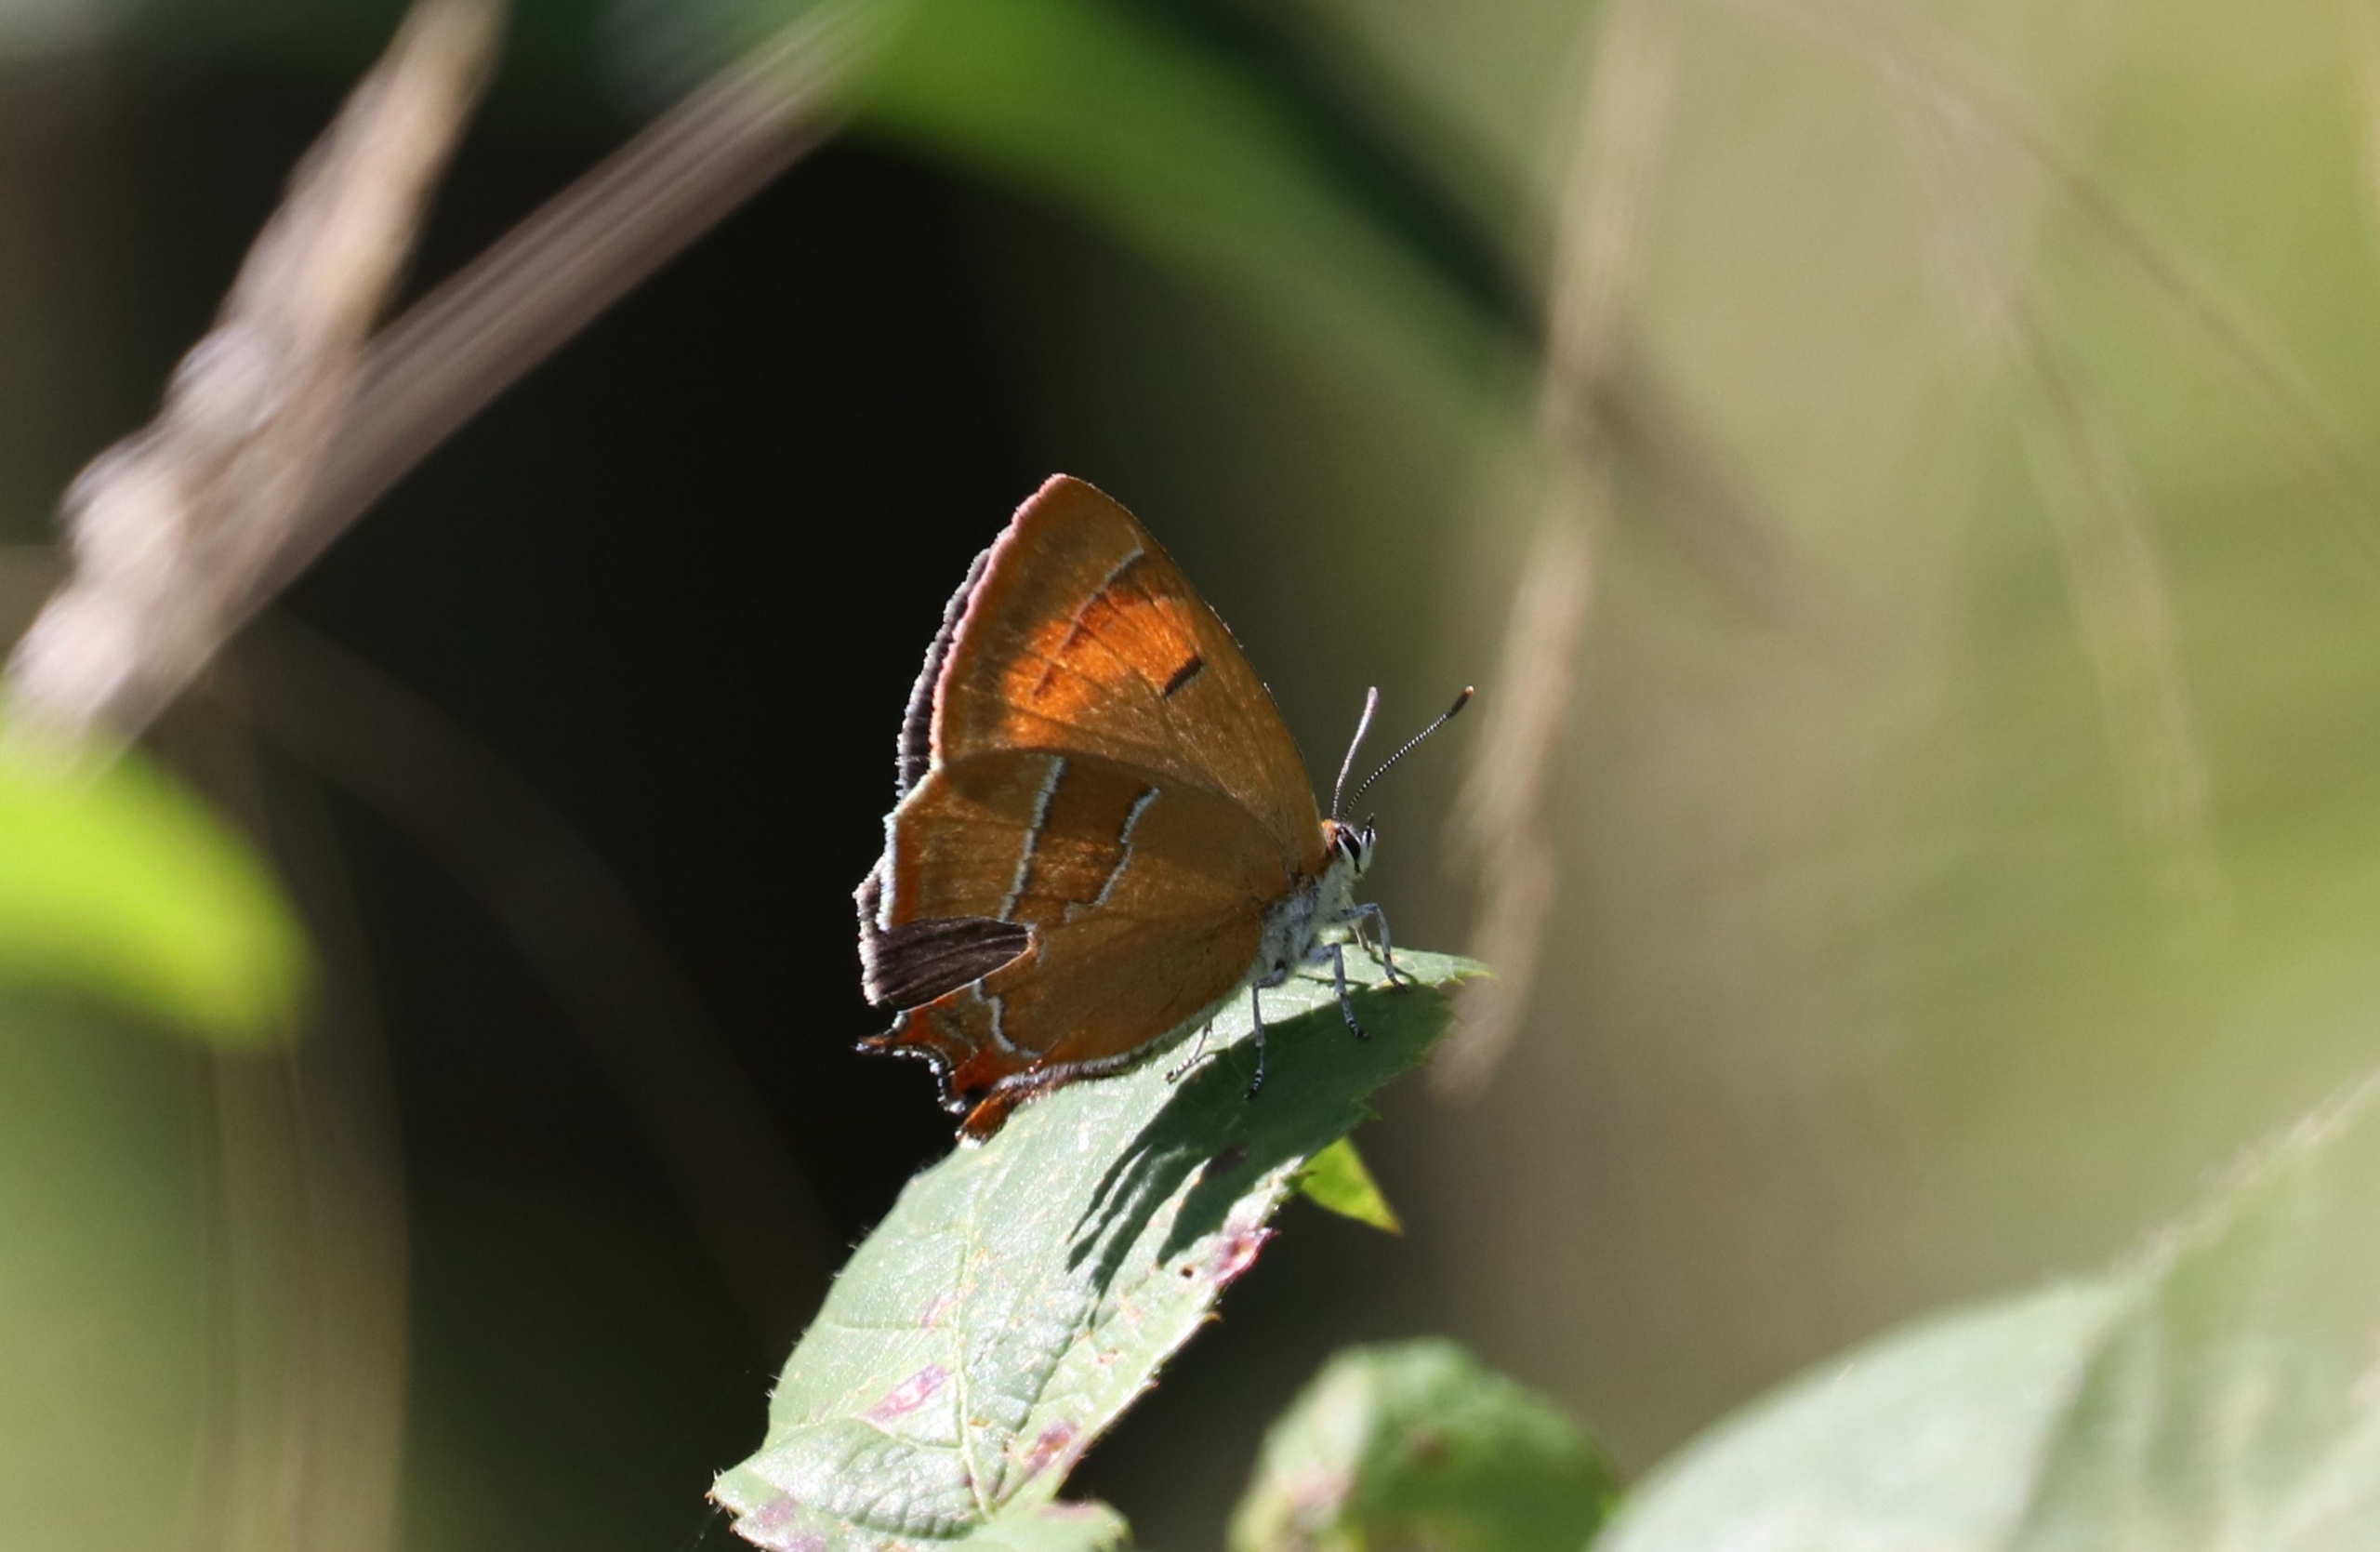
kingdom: Animalia
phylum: Arthropoda
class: Insecta
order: Lepidoptera
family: Lycaenidae
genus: Thecla
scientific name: Thecla betulae
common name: Guldhale
